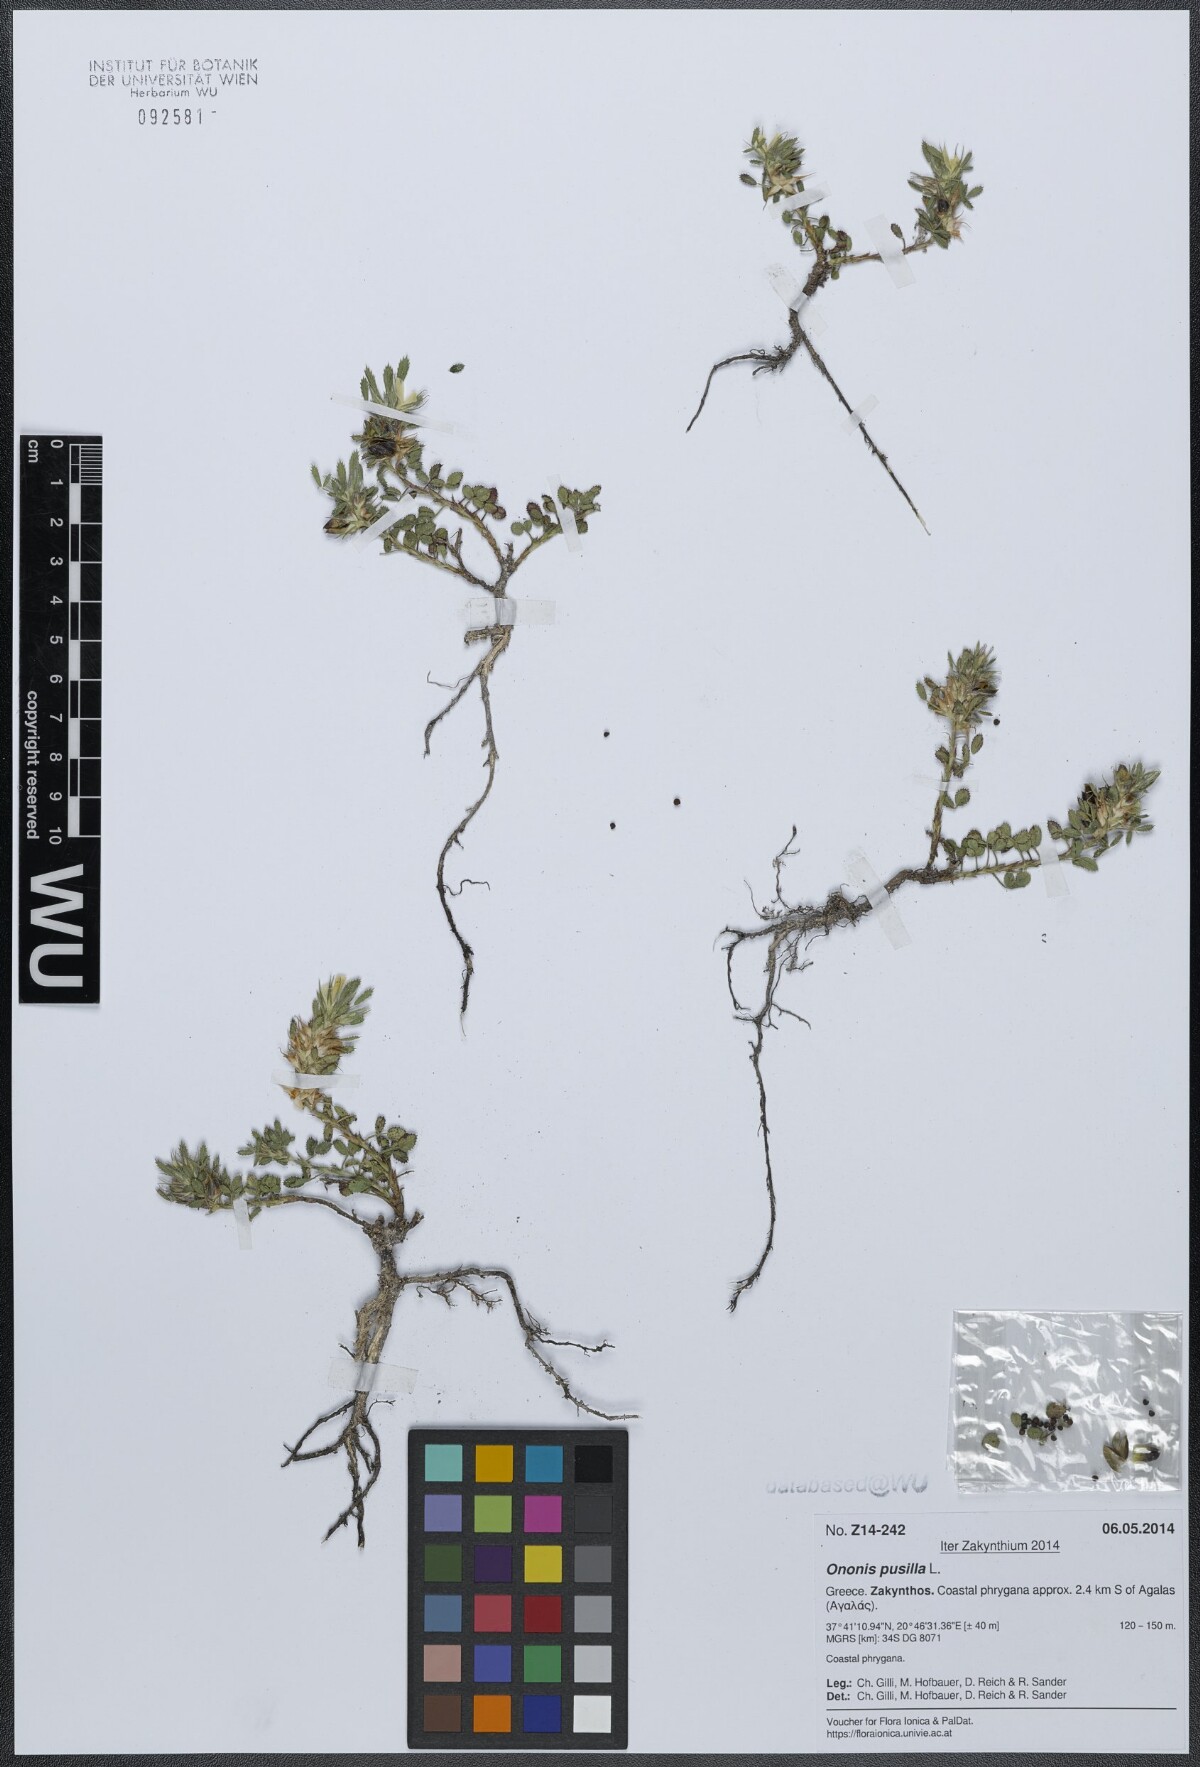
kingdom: Plantae
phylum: Tracheophyta
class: Magnoliopsida
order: Fabales
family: Fabaceae
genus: Ononis
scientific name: Ononis pusilla
